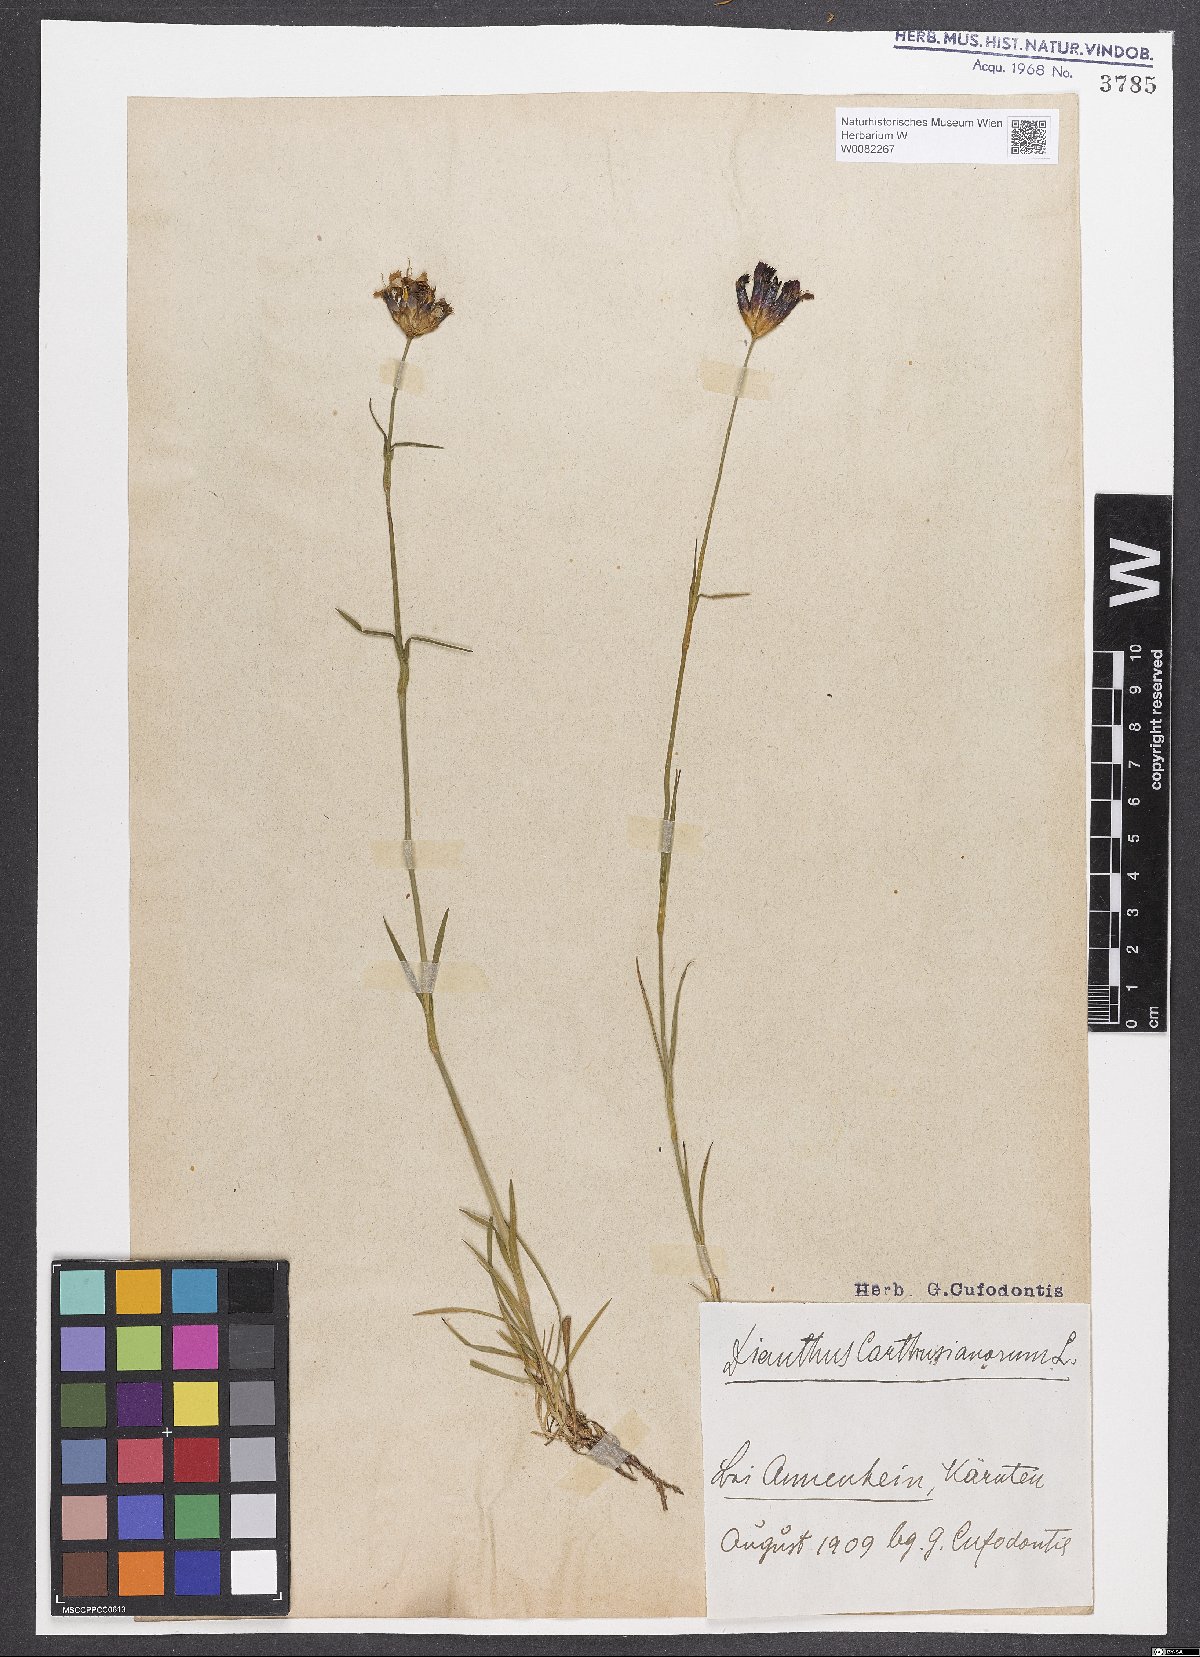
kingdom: Plantae
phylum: Tracheophyta
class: Magnoliopsida
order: Caryophyllales
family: Caryophyllaceae
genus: Dianthus
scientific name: Dianthus carthusianorum
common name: Carthusian pink
